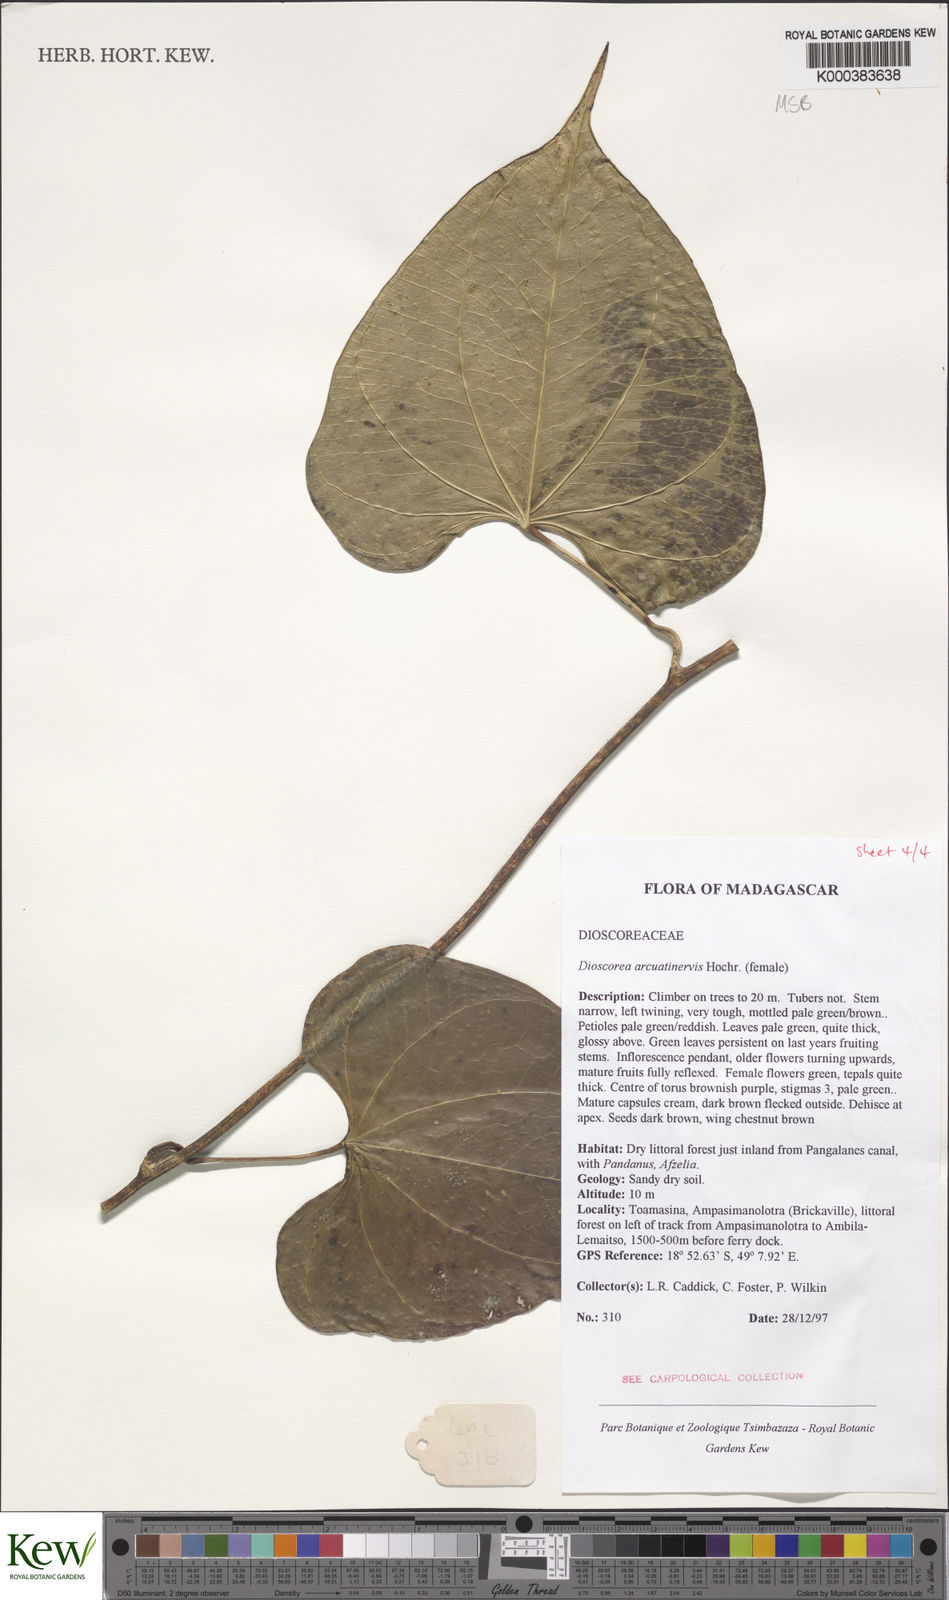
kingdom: Plantae
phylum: Tracheophyta
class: Liliopsida
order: Dioscoreales
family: Dioscoreaceae
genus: Dioscorea
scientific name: Dioscorea arcuatinervis
